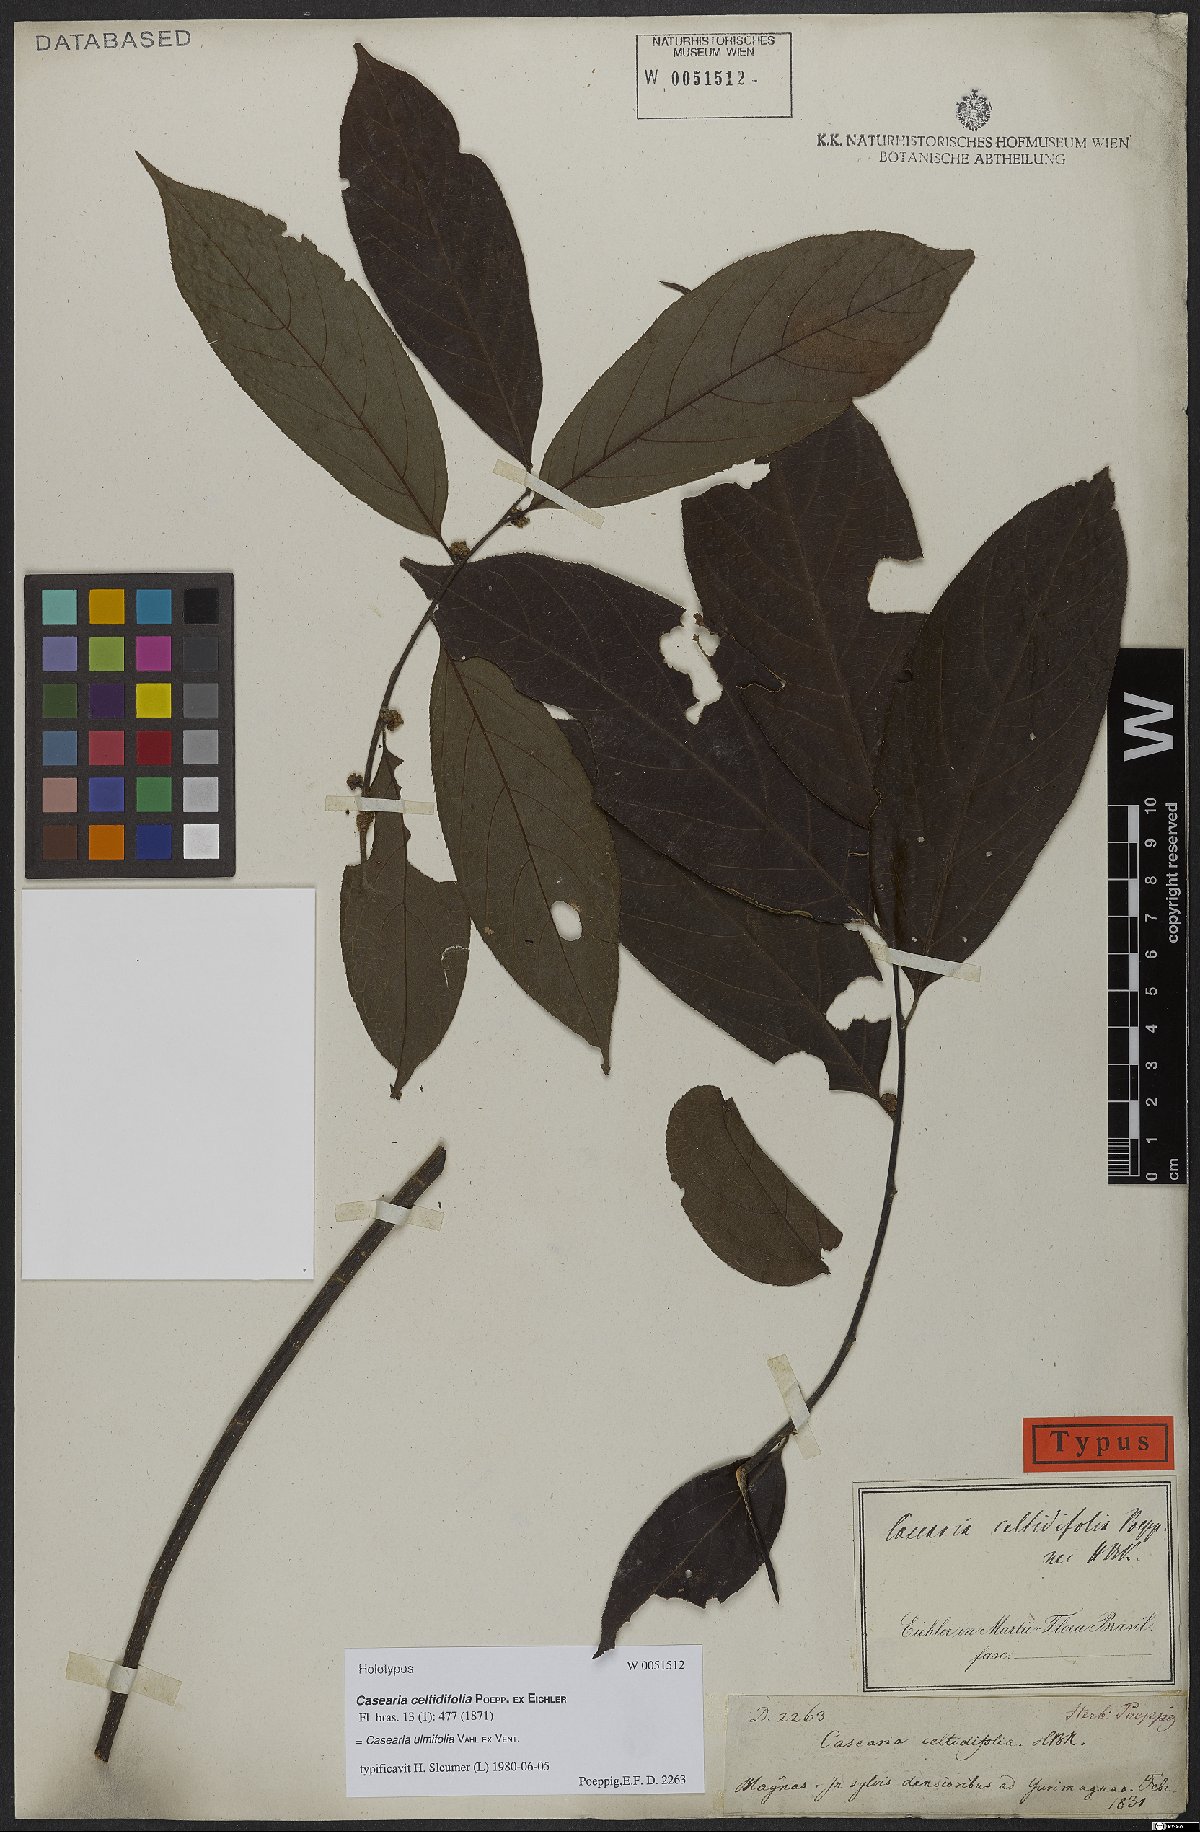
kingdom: Plantae
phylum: Tracheophyta
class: Magnoliopsida
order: Malpighiales
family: Salicaceae
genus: Casearia
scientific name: Casearia ulmifolia
